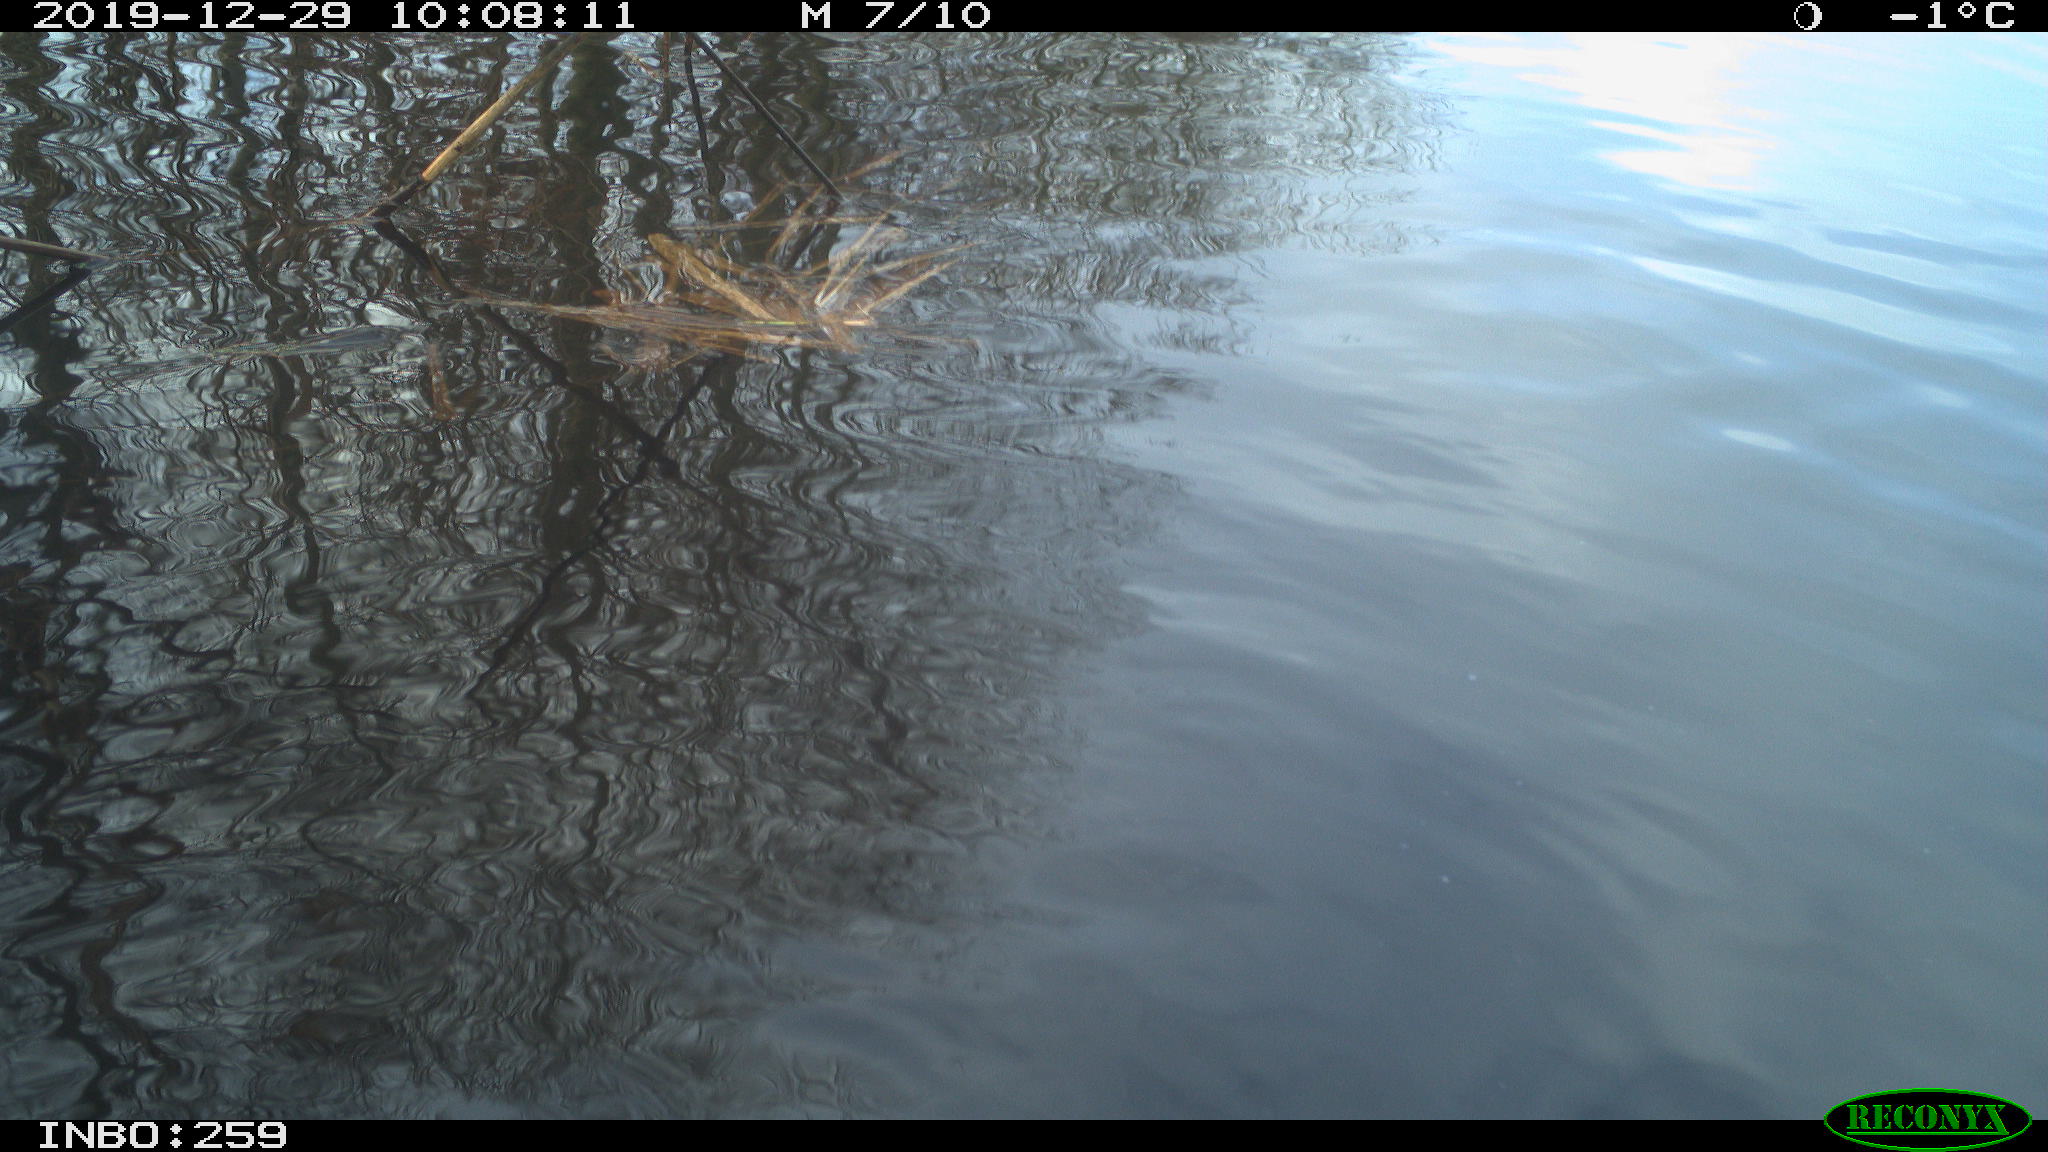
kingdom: Animalia
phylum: Chordata
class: Aves
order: Gruiformes
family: Rallidae
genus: Gallinula
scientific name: Gallinula chloropus
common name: Common moorhen
